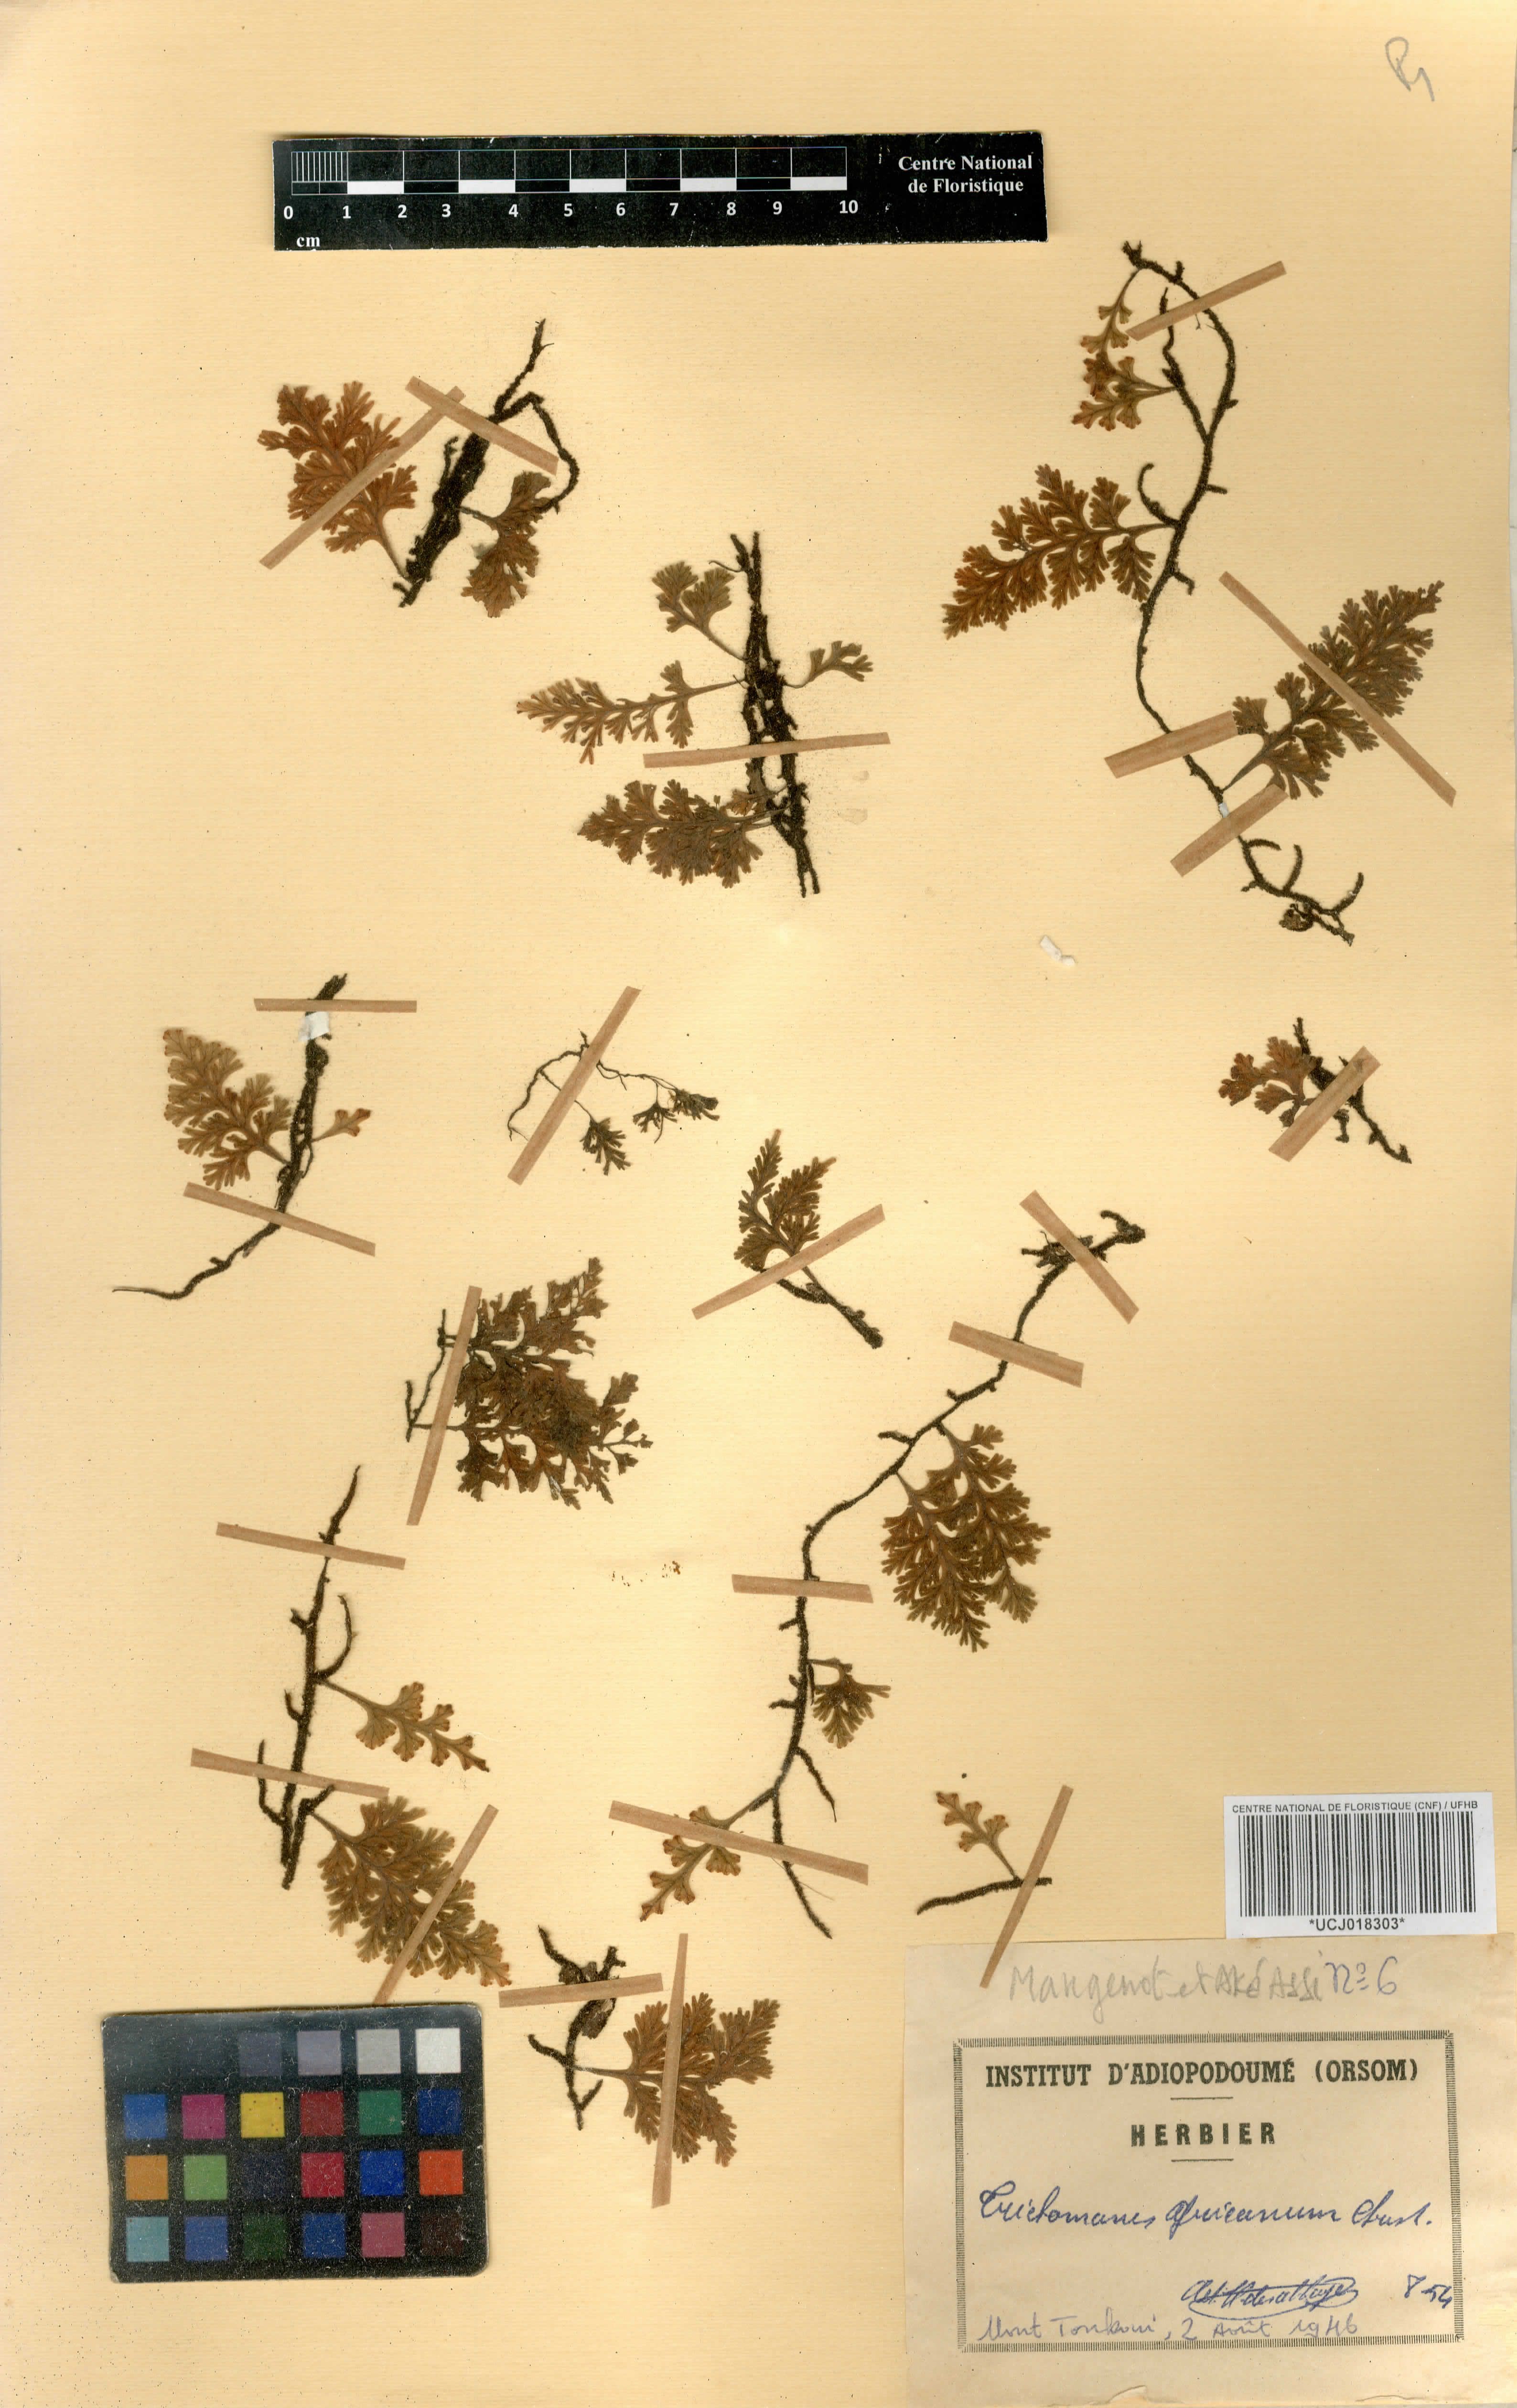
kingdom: Plantae
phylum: Tracheophyta
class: Polypodiopsida
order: Hymenophyllales
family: Hymenophyllaceae
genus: Crepidomanes
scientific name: Crepidomanes africanum
